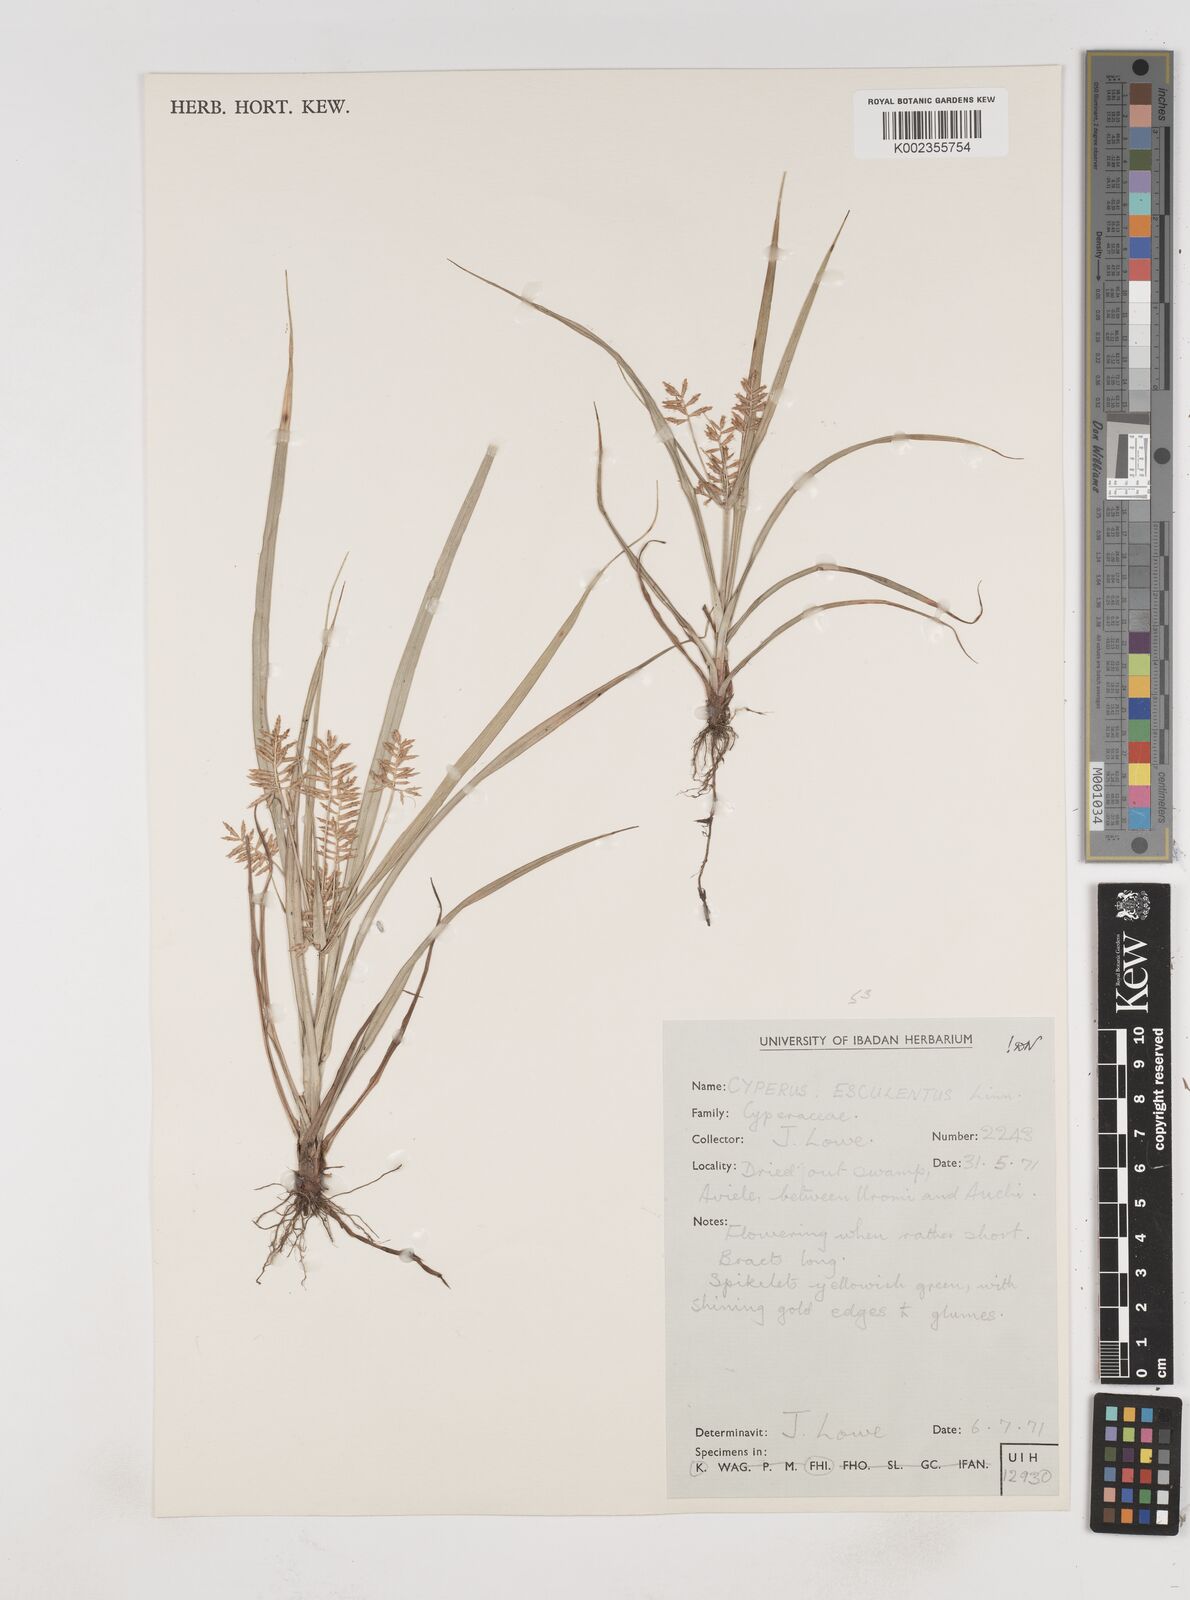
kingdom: Plantae
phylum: Tracheophyta
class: Liliopsida
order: Poales
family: Cyperaceae
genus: Cyperus
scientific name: Cyperus esculentus
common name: Yellow nutsedge
